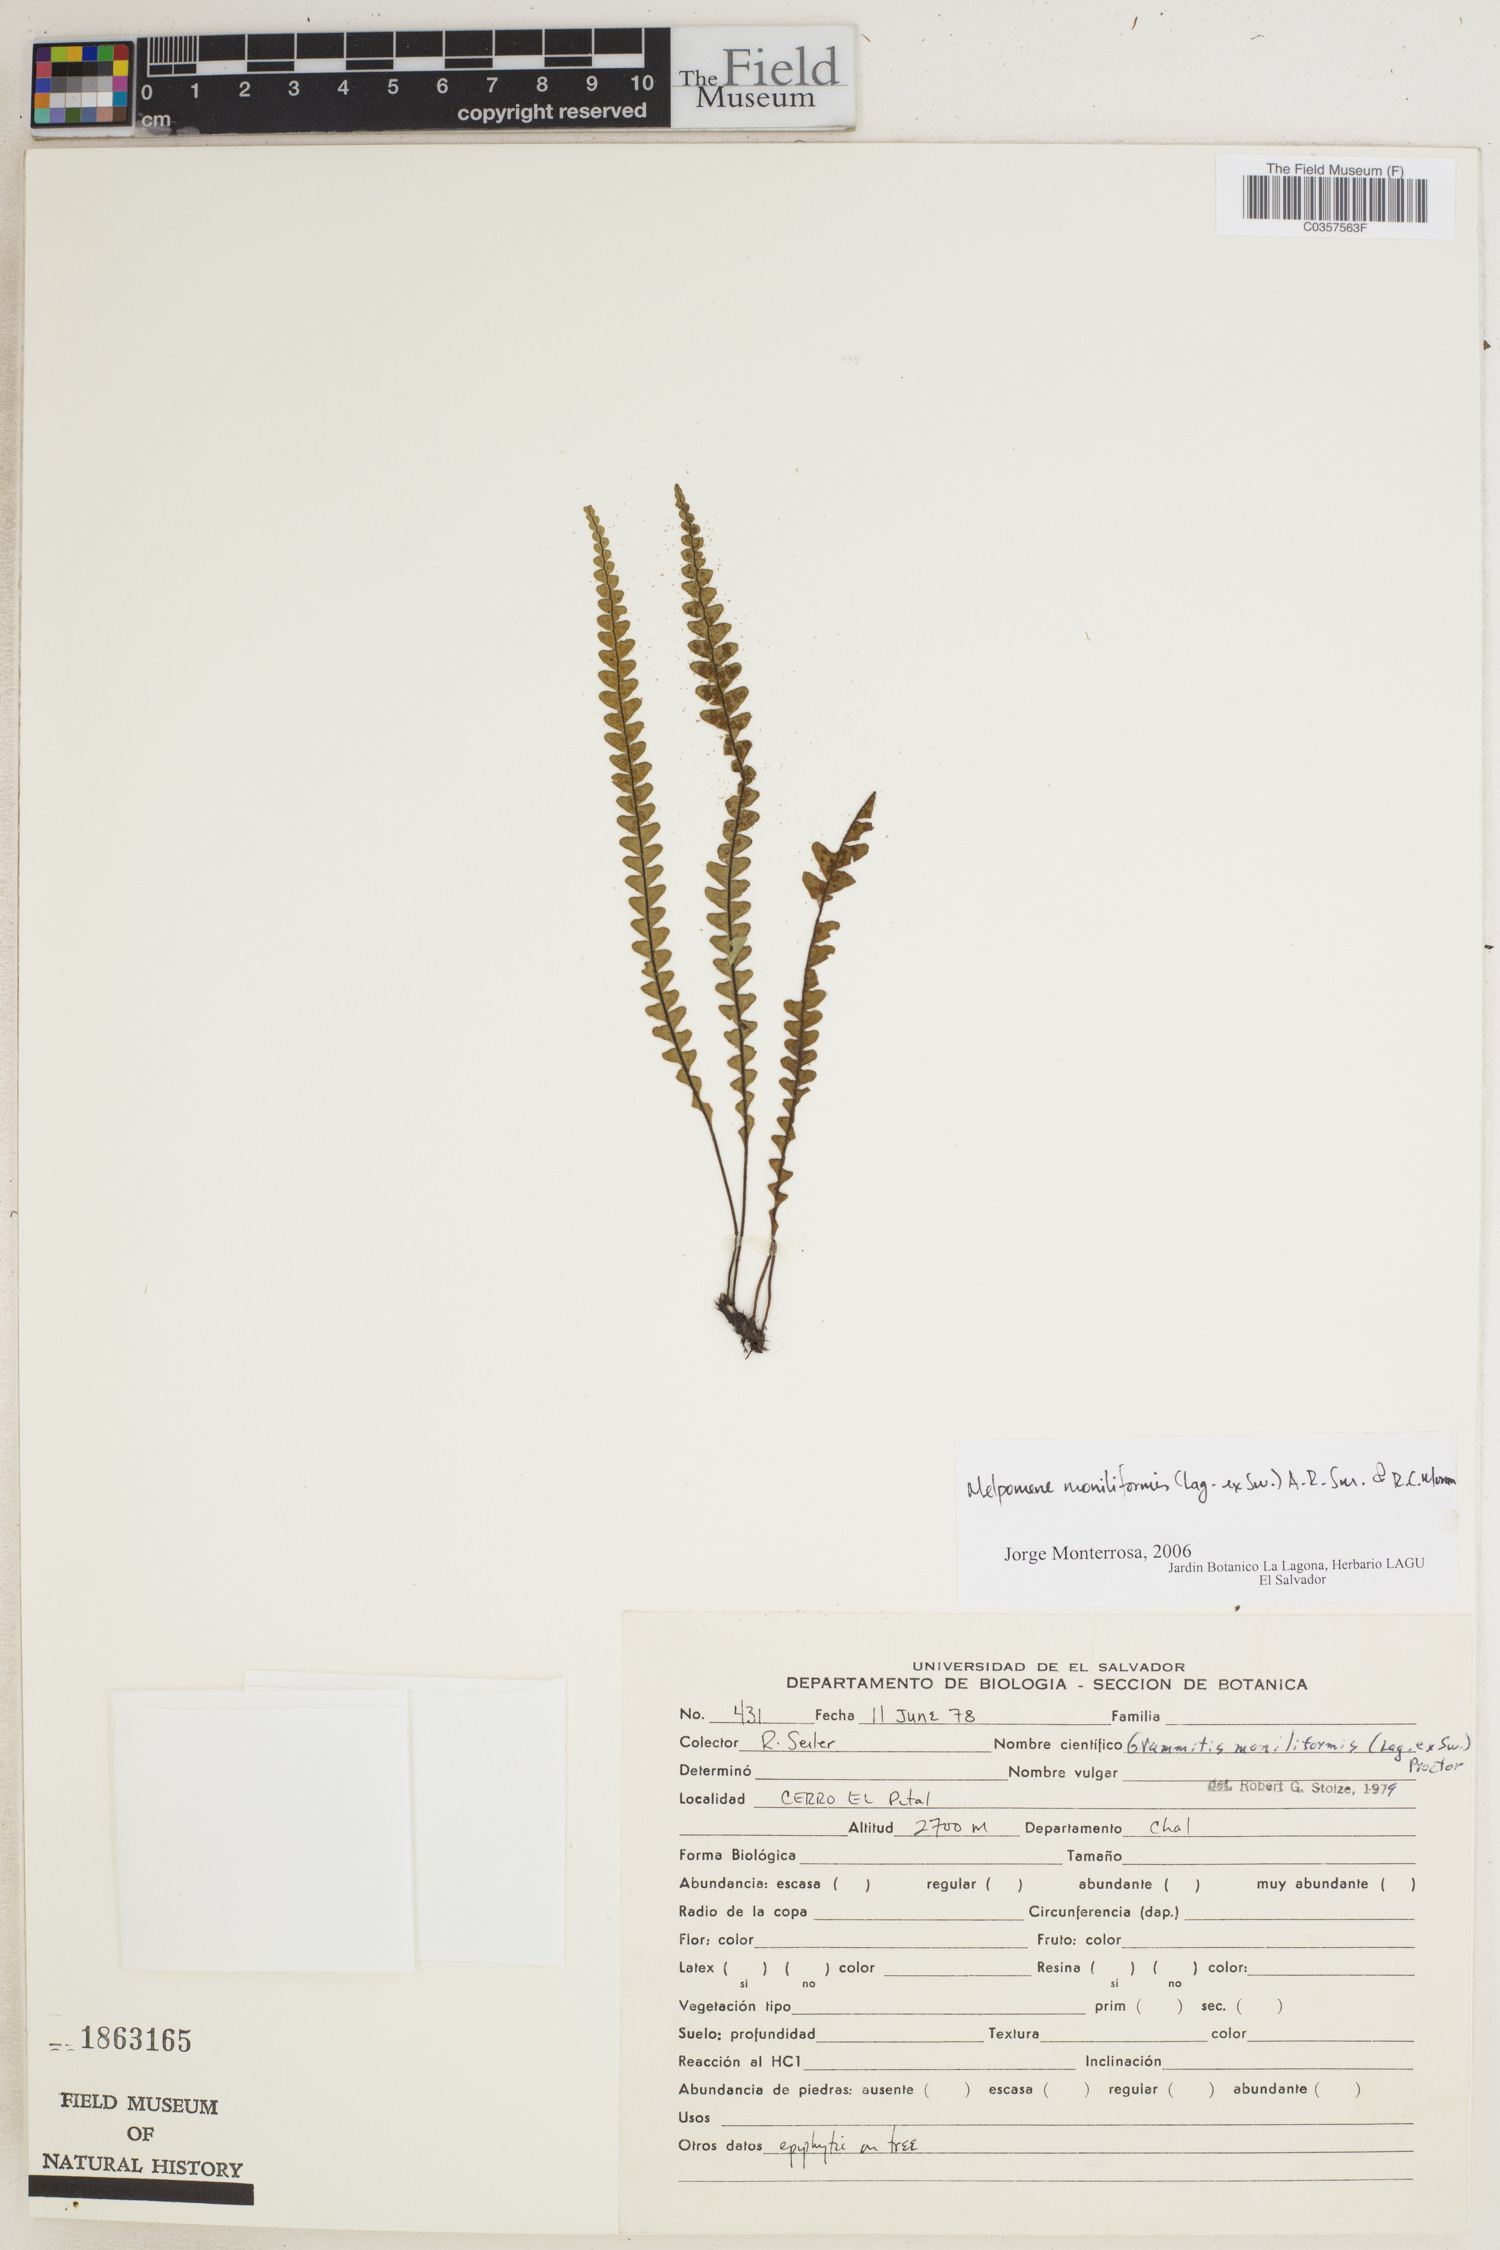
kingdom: Plantae
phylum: Tracheophyta
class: Polypodiopsida
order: Polypodiales
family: Polypodiaceae
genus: Melpomene
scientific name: Melpomene moniliformis
